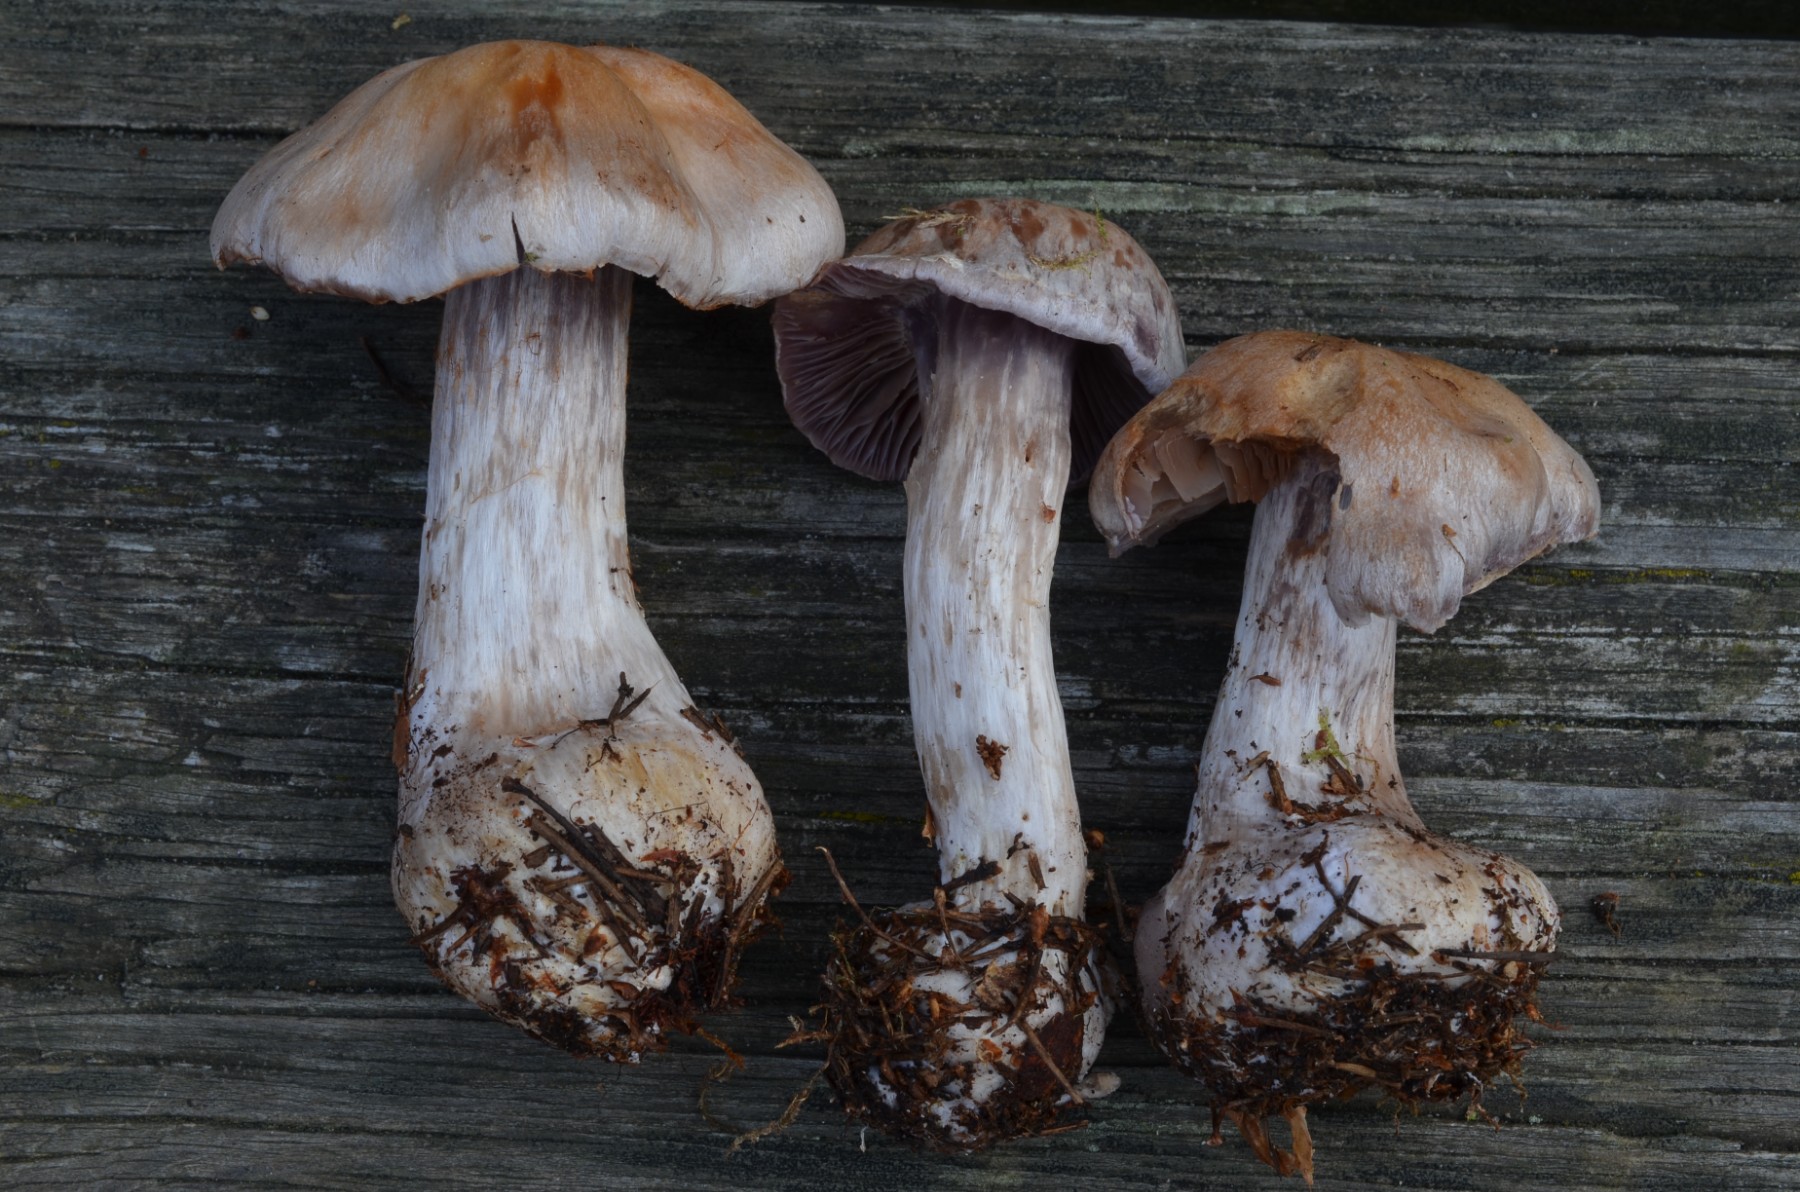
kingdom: Fungi
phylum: Basidiomycota
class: Agaricomycetes
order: Agaricales
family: Cortinariaceae
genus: Cortinarius
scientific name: Cortinarius quarciticus
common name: kvarts-slørhat
